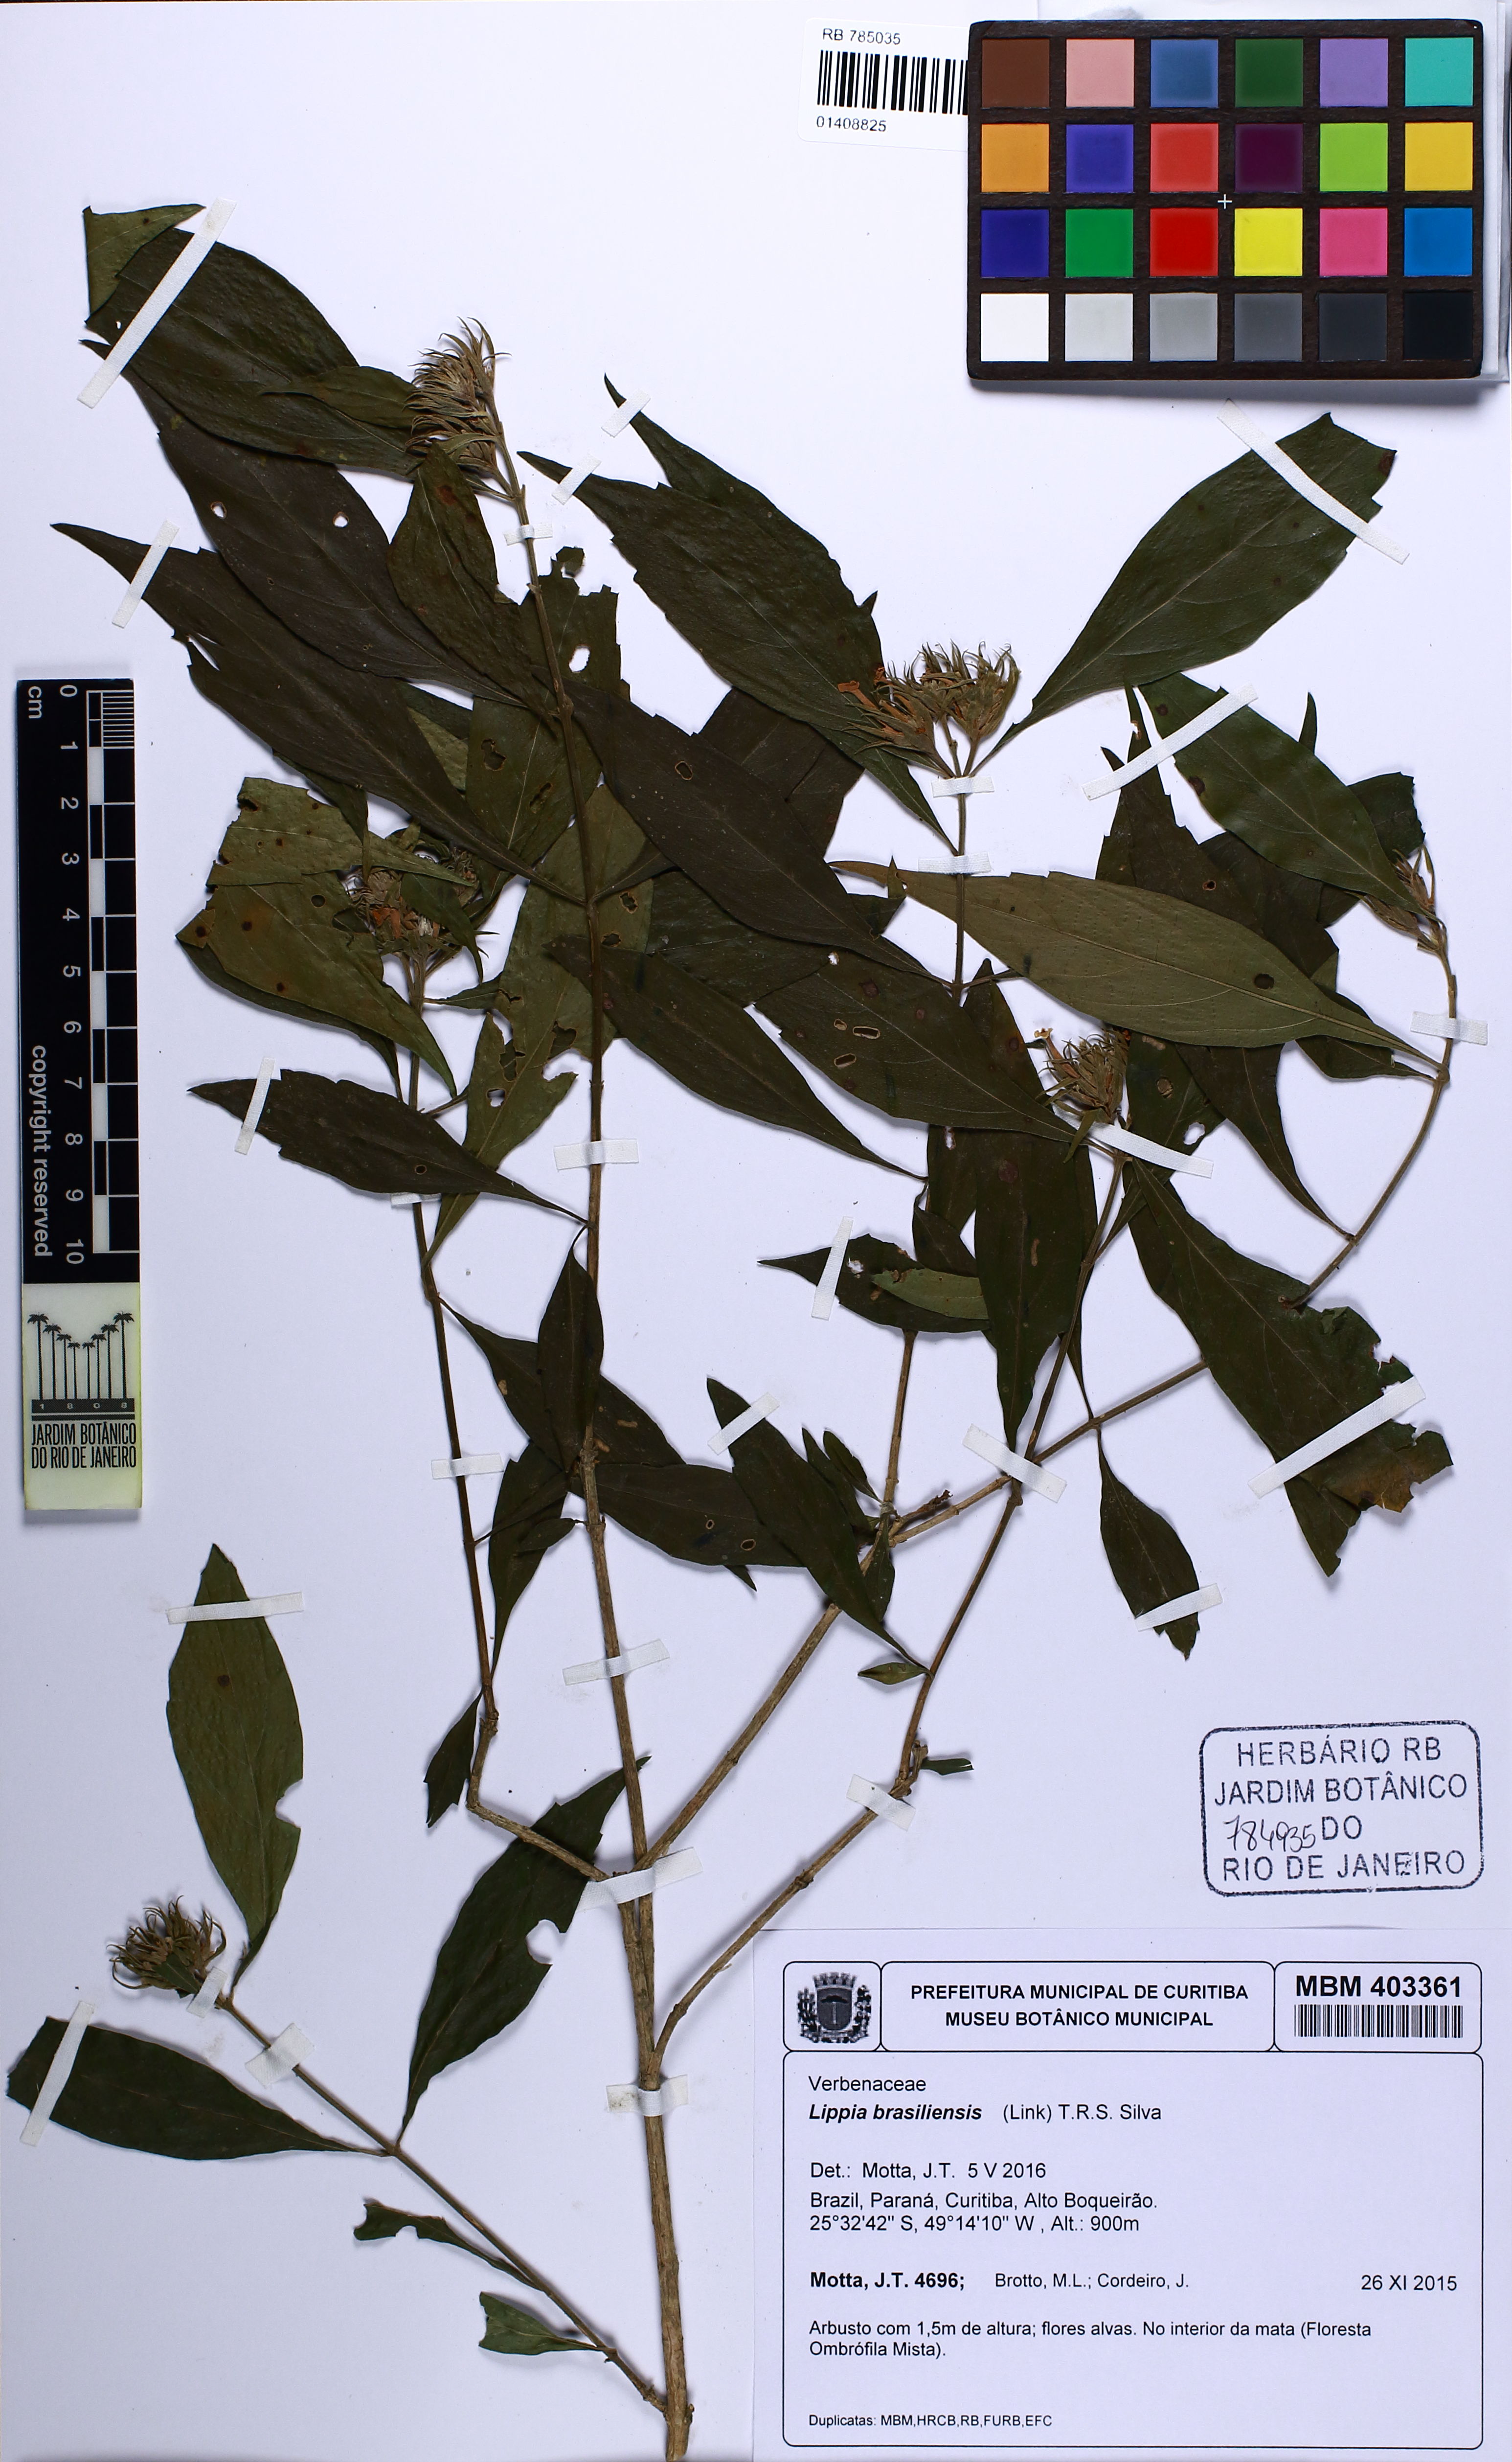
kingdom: Plantae
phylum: Tracheophyta
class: Magnoliopsida
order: Lamiales
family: Verbenaceae
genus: Lippia
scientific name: Lippia brasiliensis
